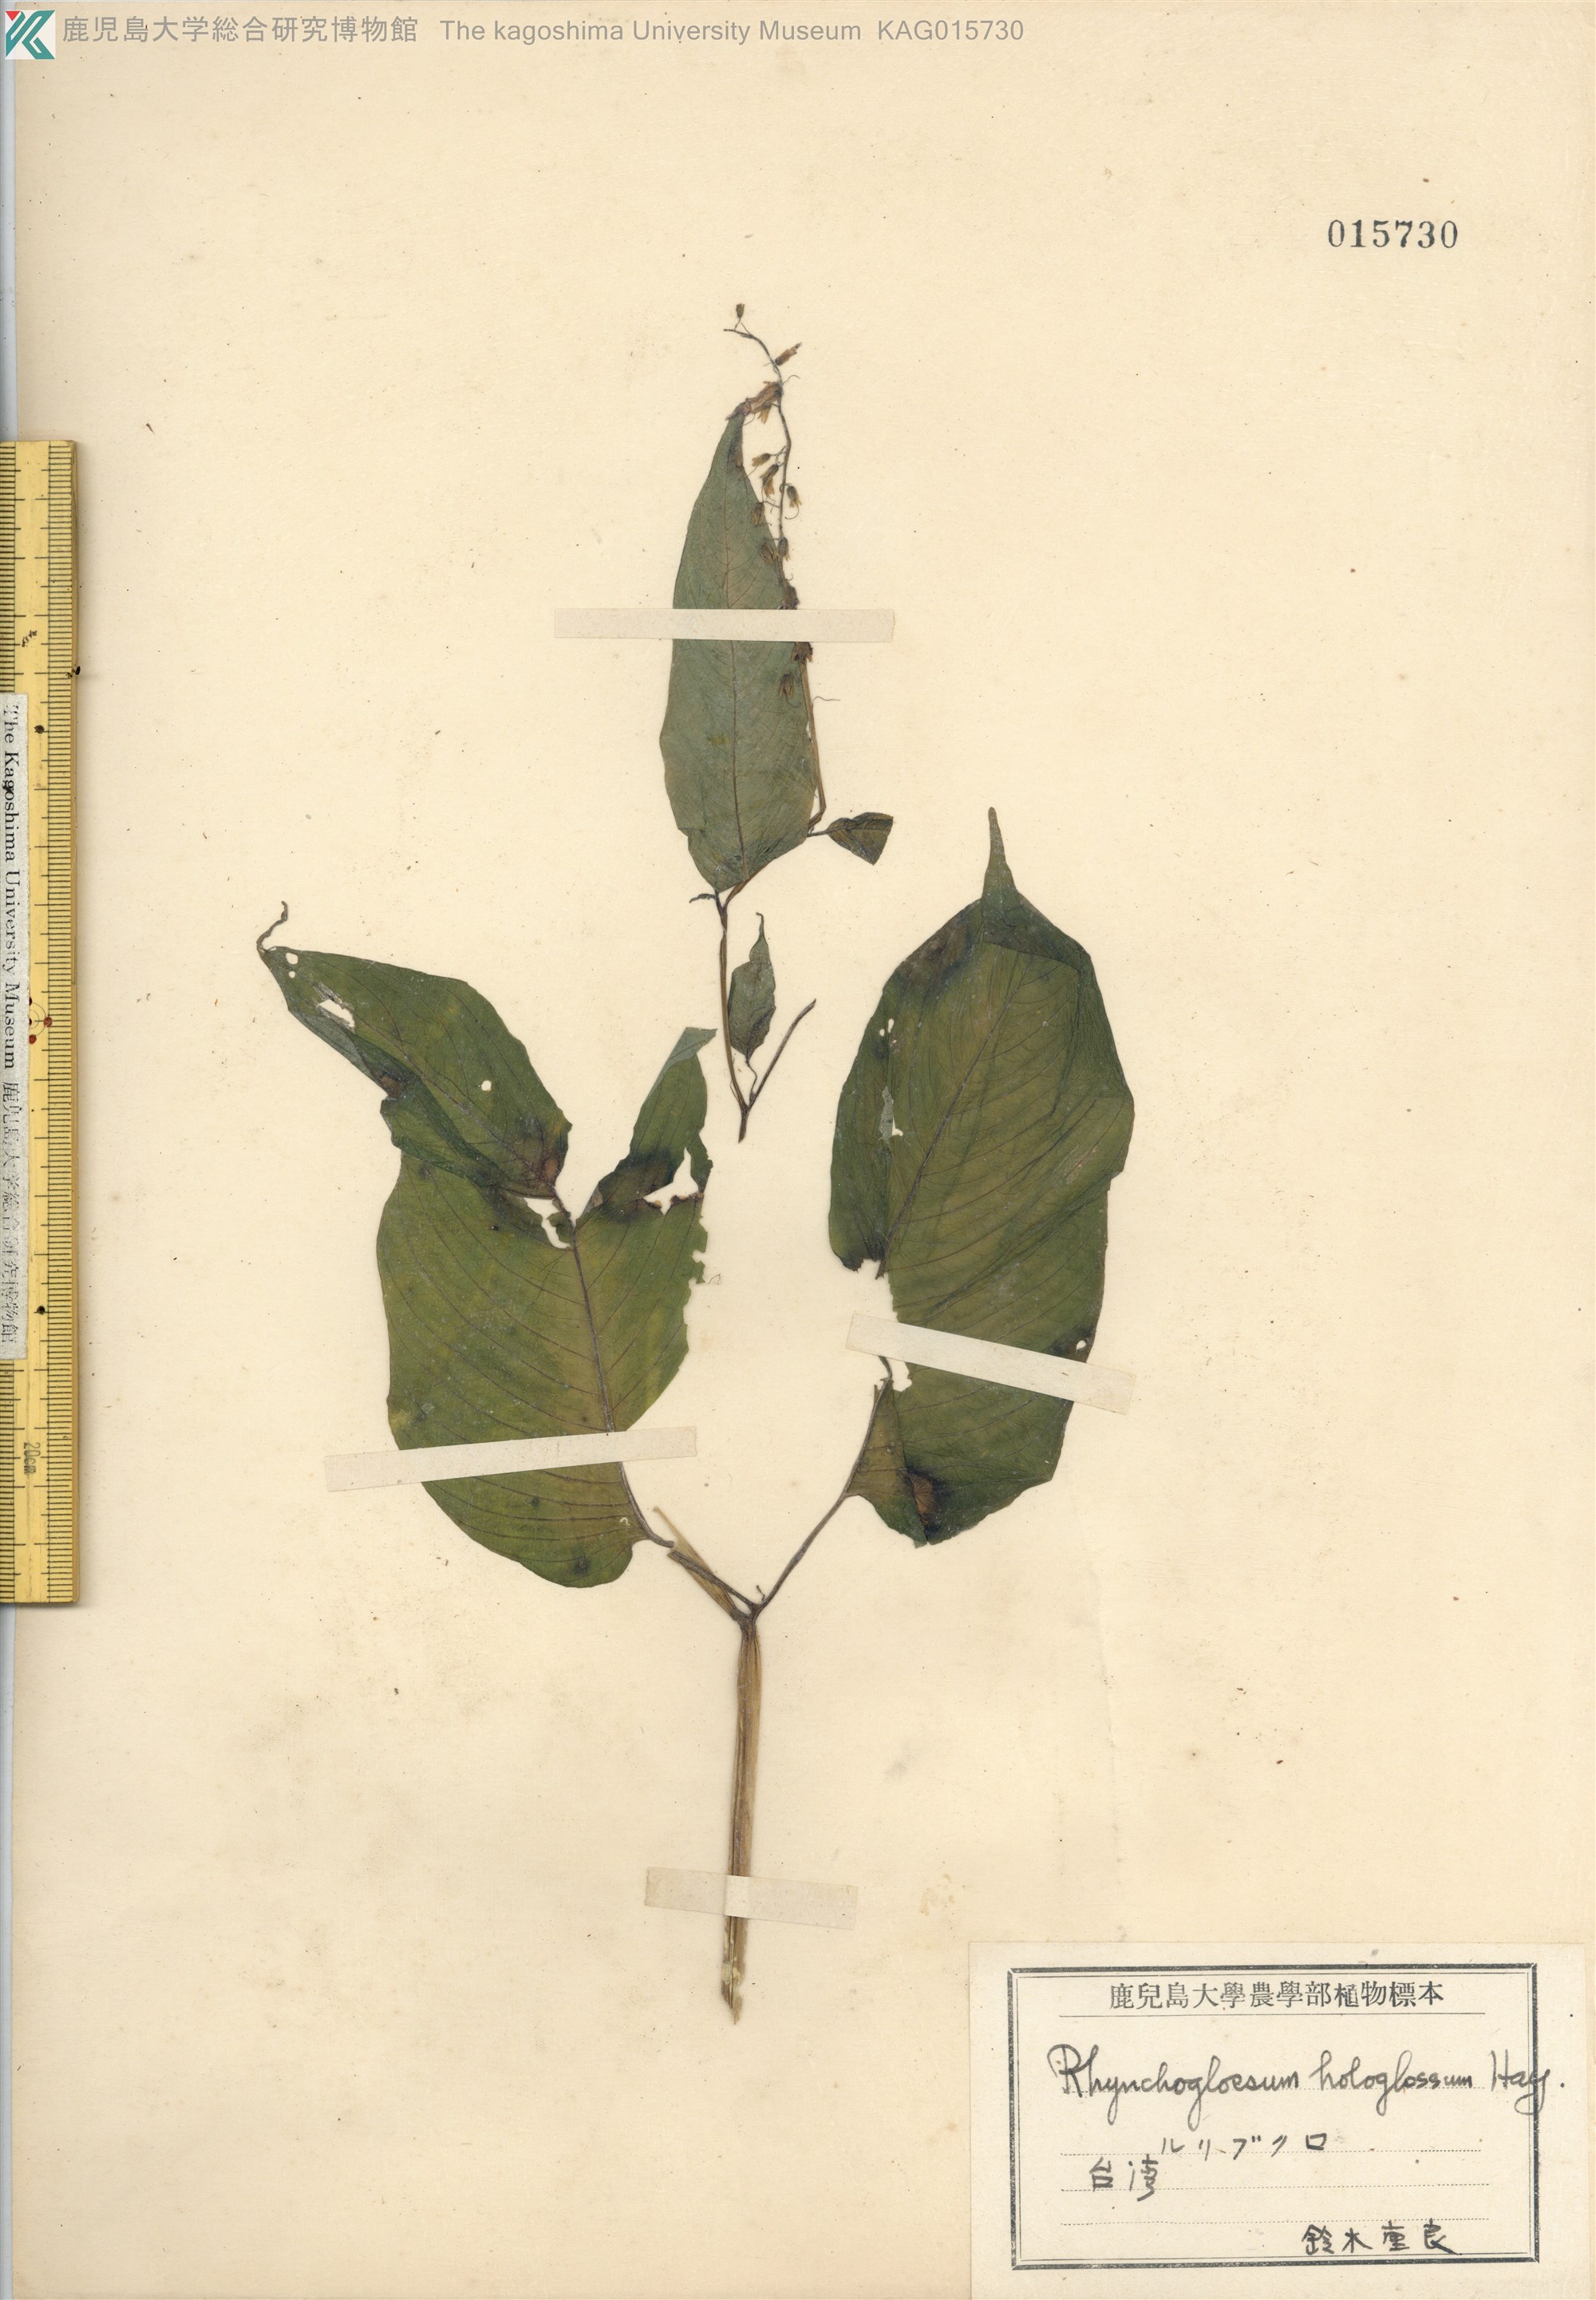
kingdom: Plantae
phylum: Tracheophyta
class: Magnoliopsida
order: Lamiales
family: Gesneriaceae
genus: Rhynchoglossum
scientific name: Rhynchoglossum obliquum
